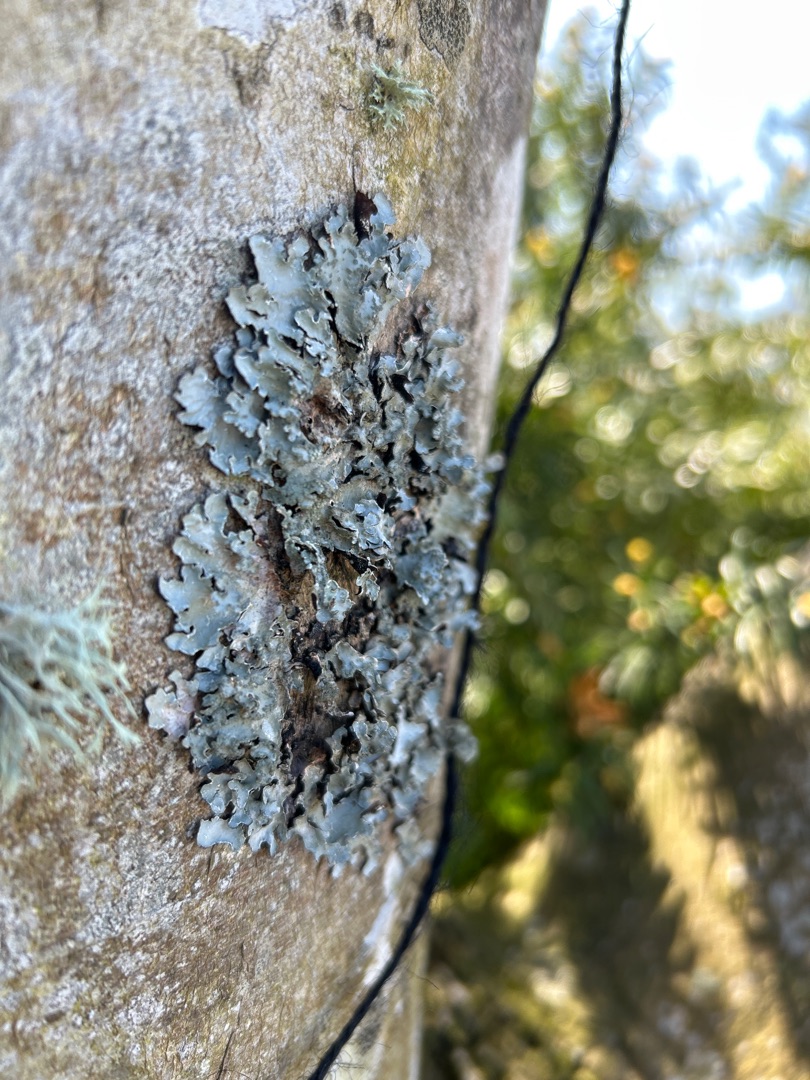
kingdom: Fungi
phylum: Ascomycota
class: Lecanoromycetes
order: Lecanorales
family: Parmeliaceae
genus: Parmelia
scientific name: Parmelia sulcata
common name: Rynket skållav
